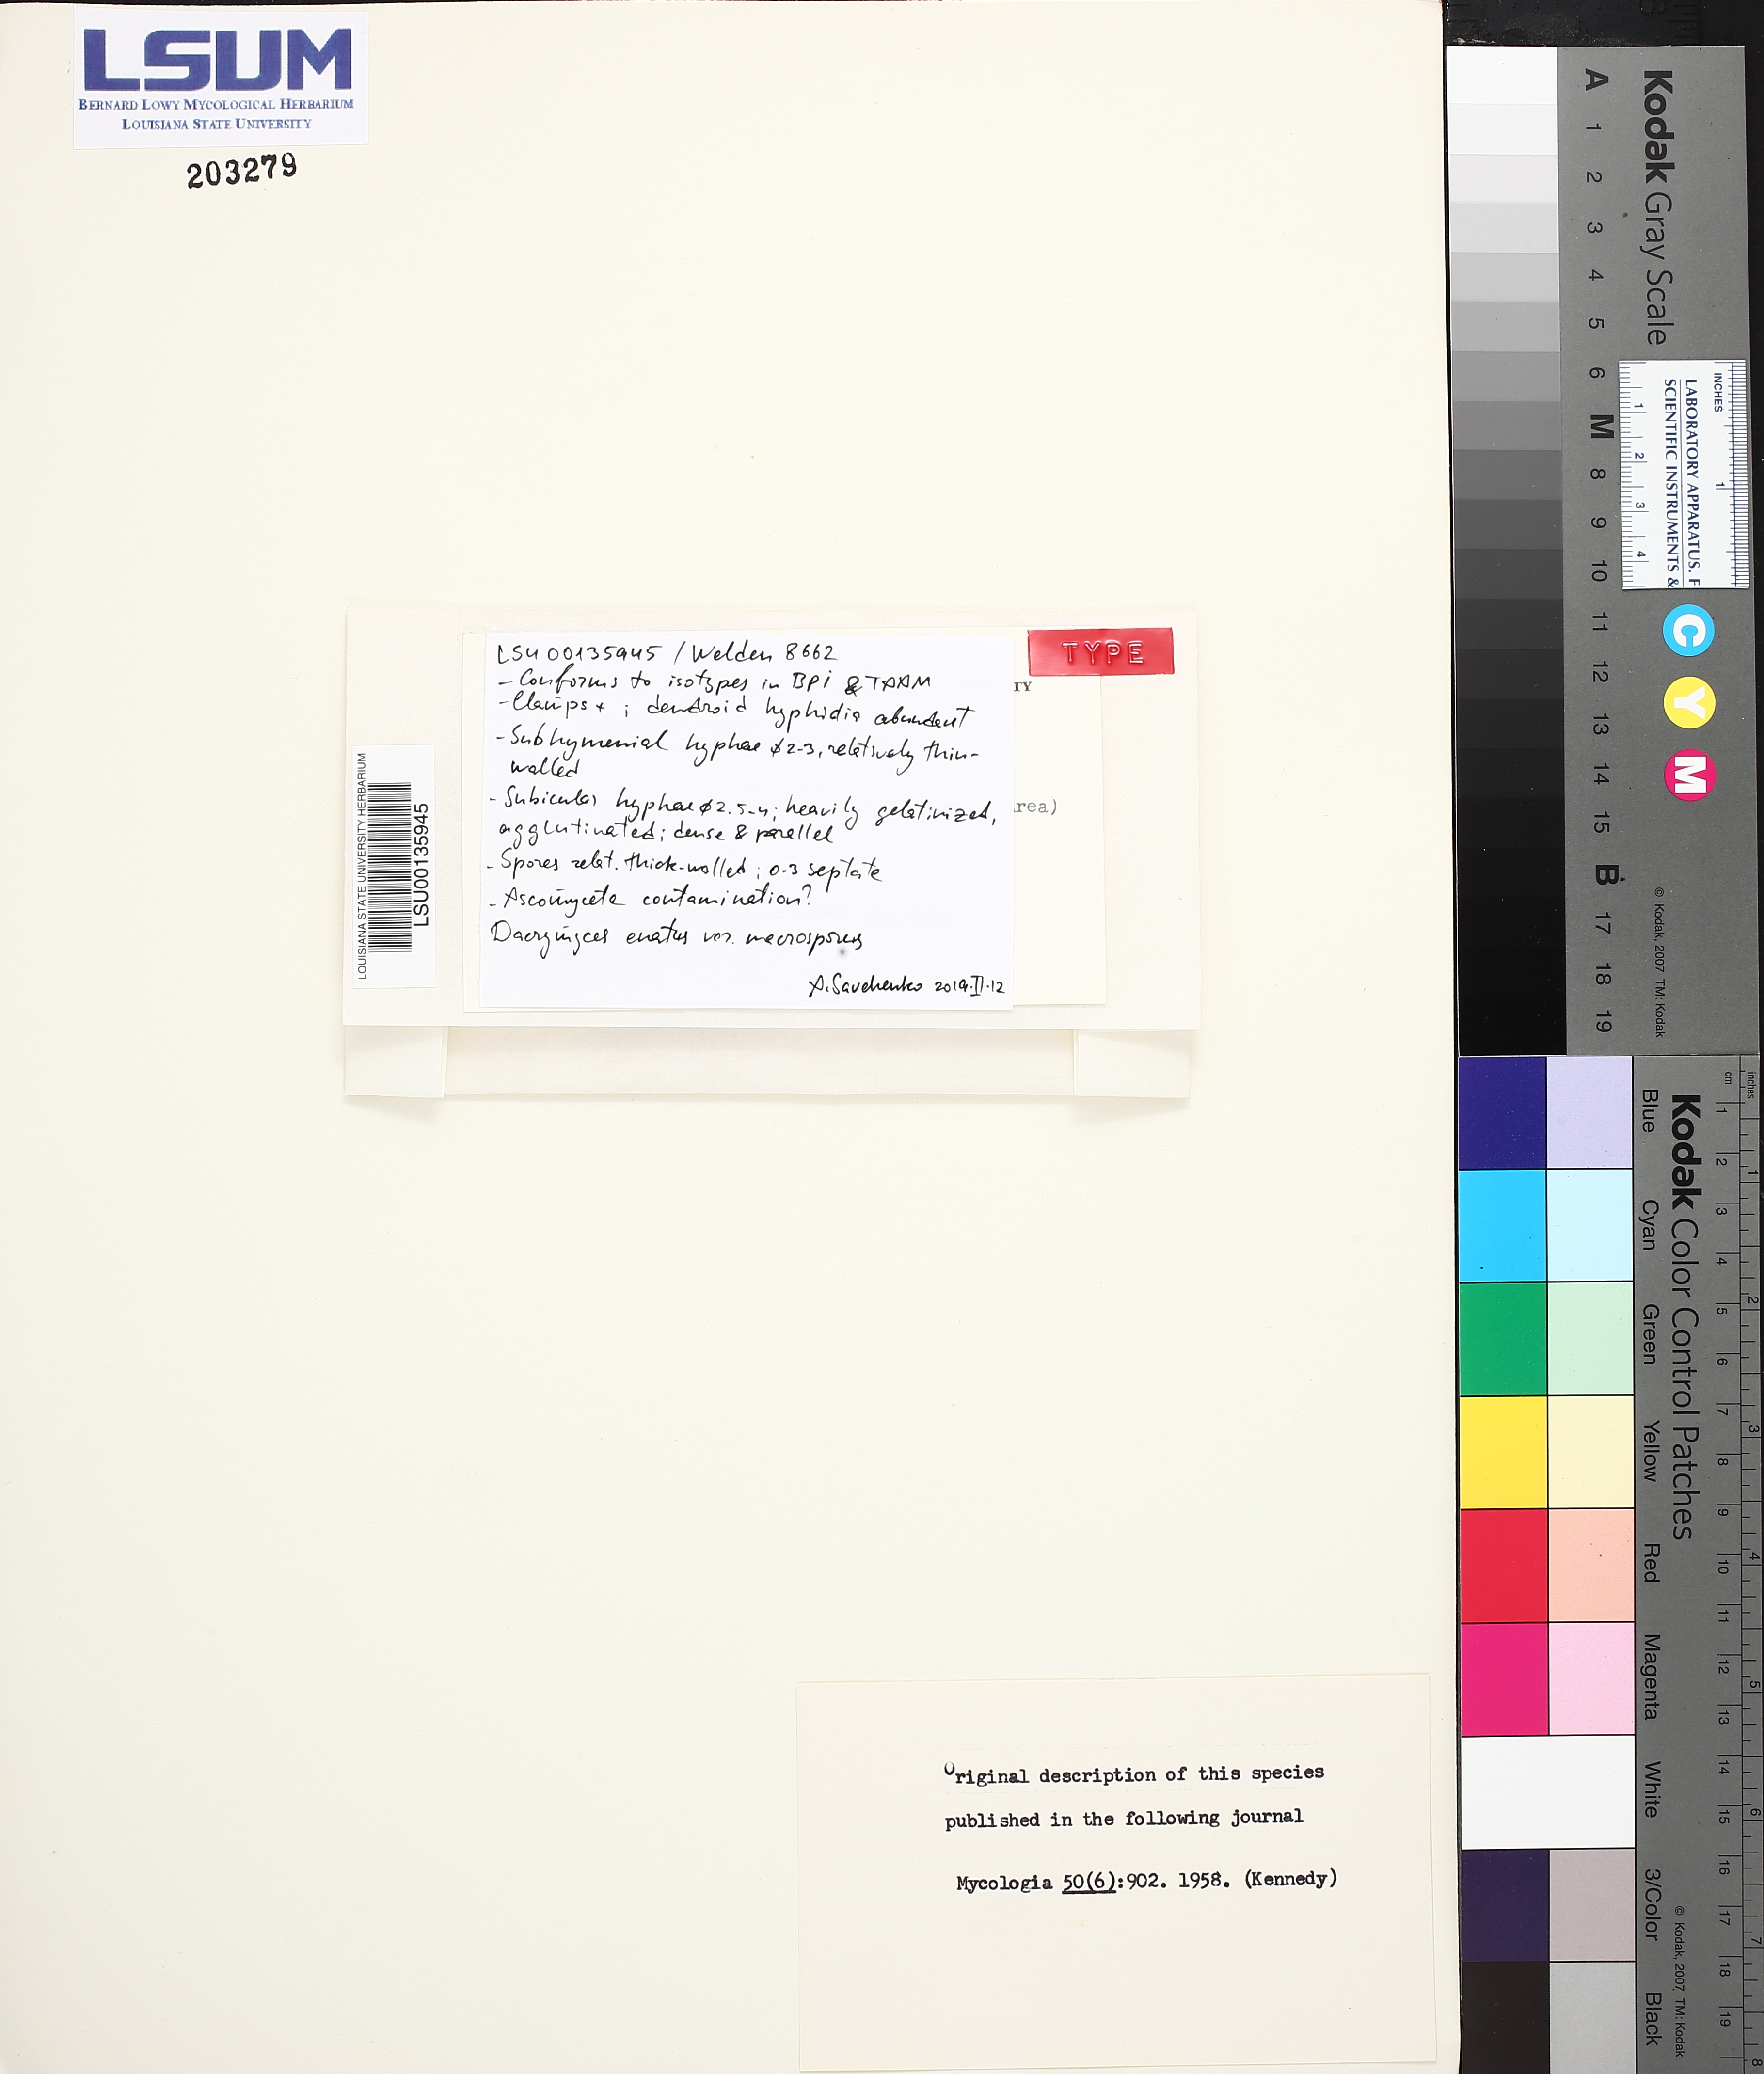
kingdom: Fungi
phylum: Basidiomycota
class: Dacrymycetes
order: Dacrymycetales
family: Dacrymycetaceae
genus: Dendrodacrys
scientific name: Dendrodacrys kennedyae
